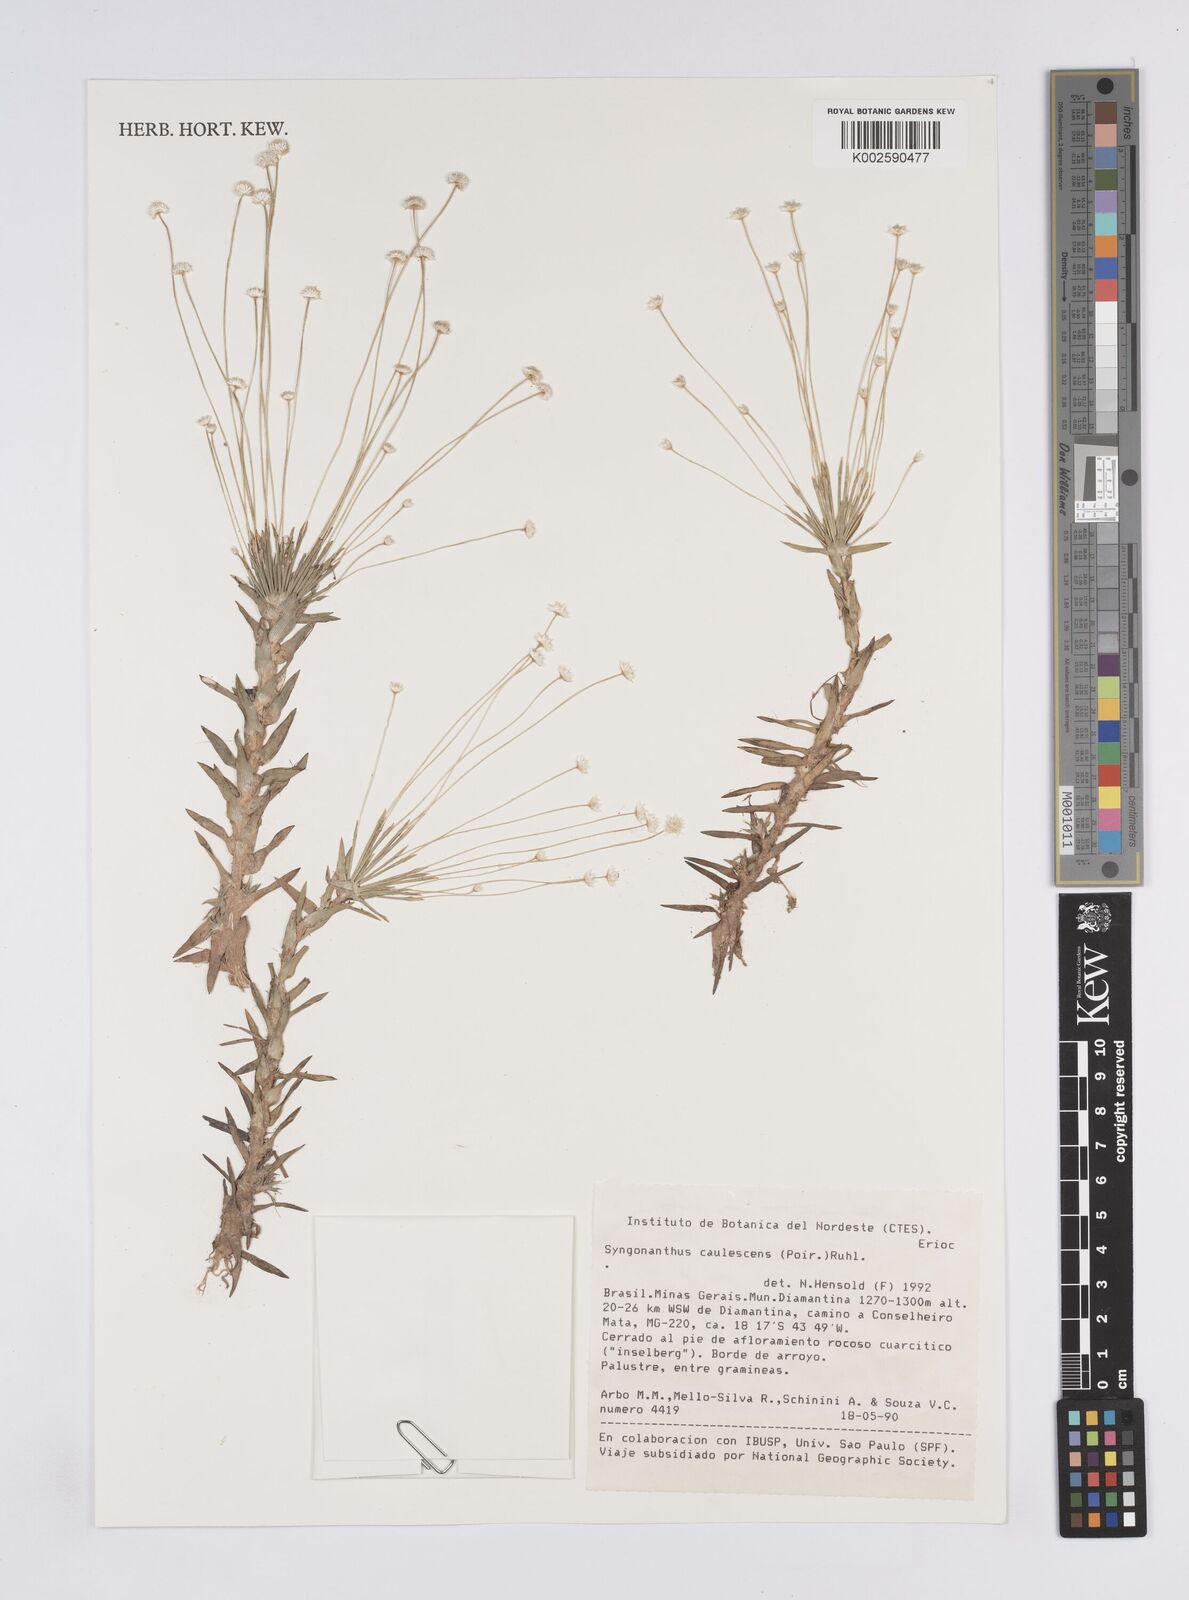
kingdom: Plantae
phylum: Tracheophyta
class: Liliopsida
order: Poales
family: Eriocaulaceae
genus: Syngonanthus
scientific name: Syngonanthus caulescens
